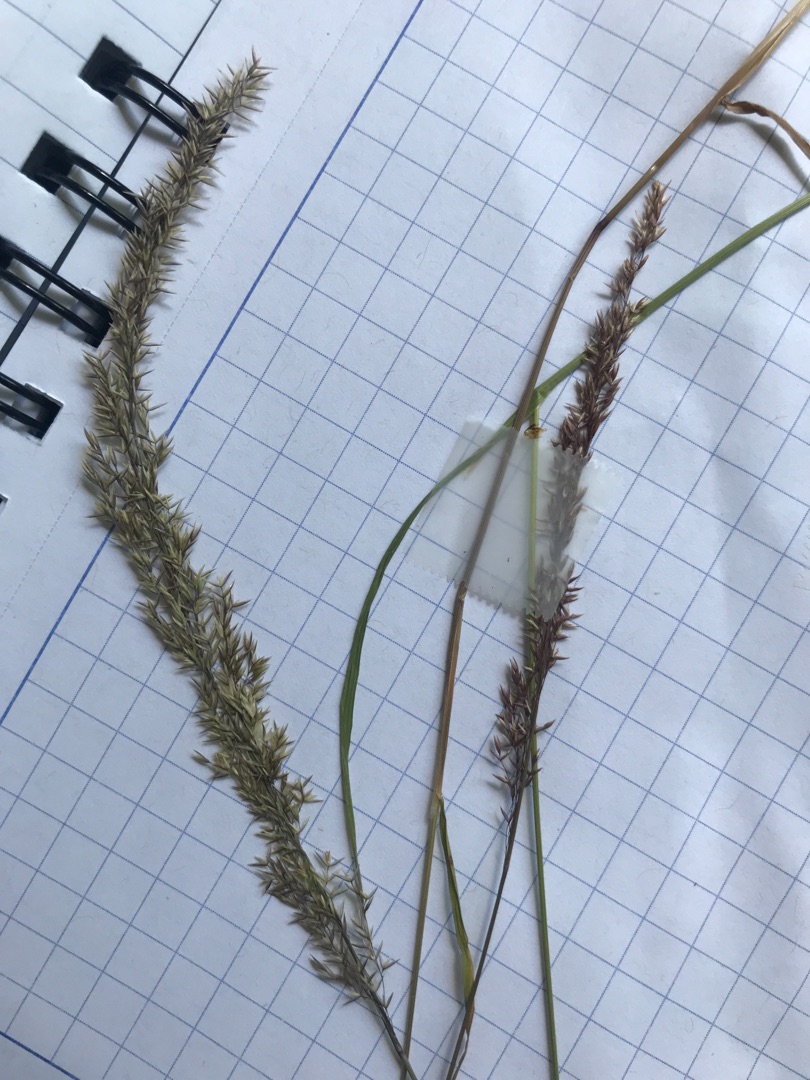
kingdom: Plantae
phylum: Tracheophyta
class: Liliopsida
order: Poales
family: Poaceae
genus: Agrostis
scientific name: Agrostis stolonifera
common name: Kryb-hvene
